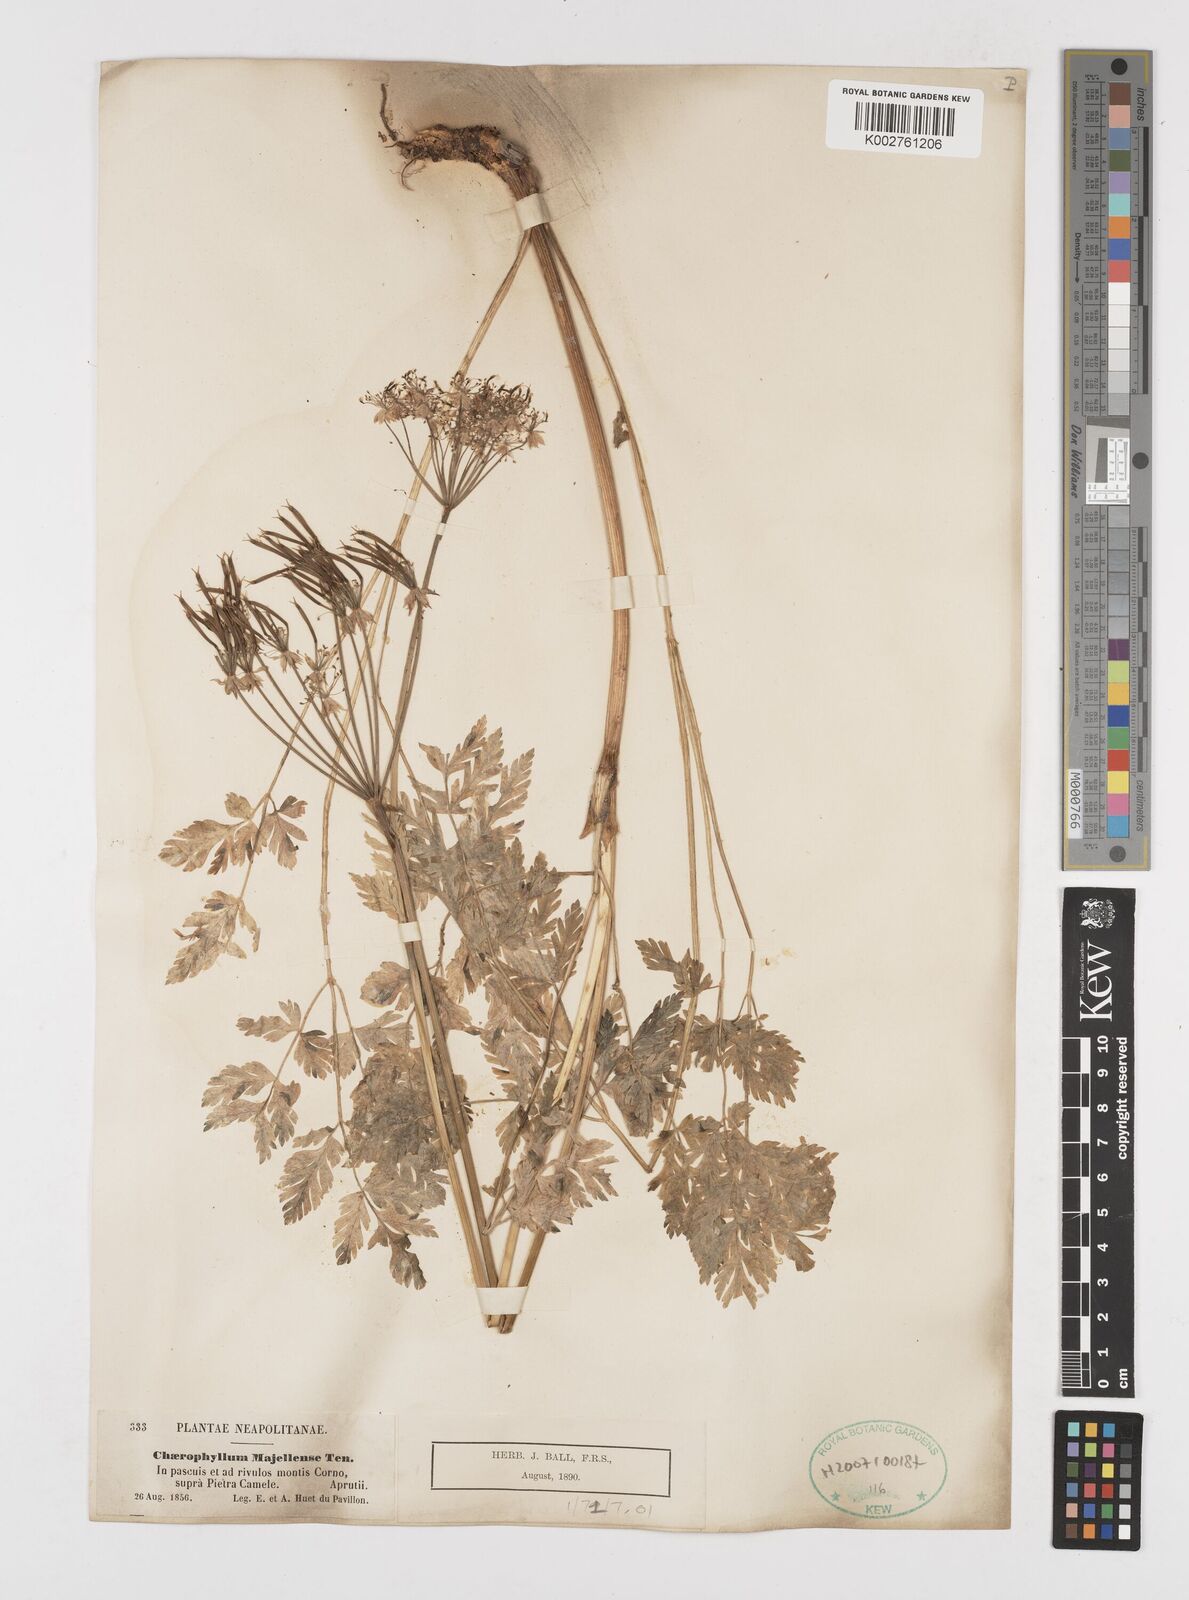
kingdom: Plantae
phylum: Tracheophyta
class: Magnoliopsida
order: Apiales
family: Apiaceae
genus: Chaerophyllum
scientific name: Chaerophyllum hirsutum
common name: Hairy chervil
